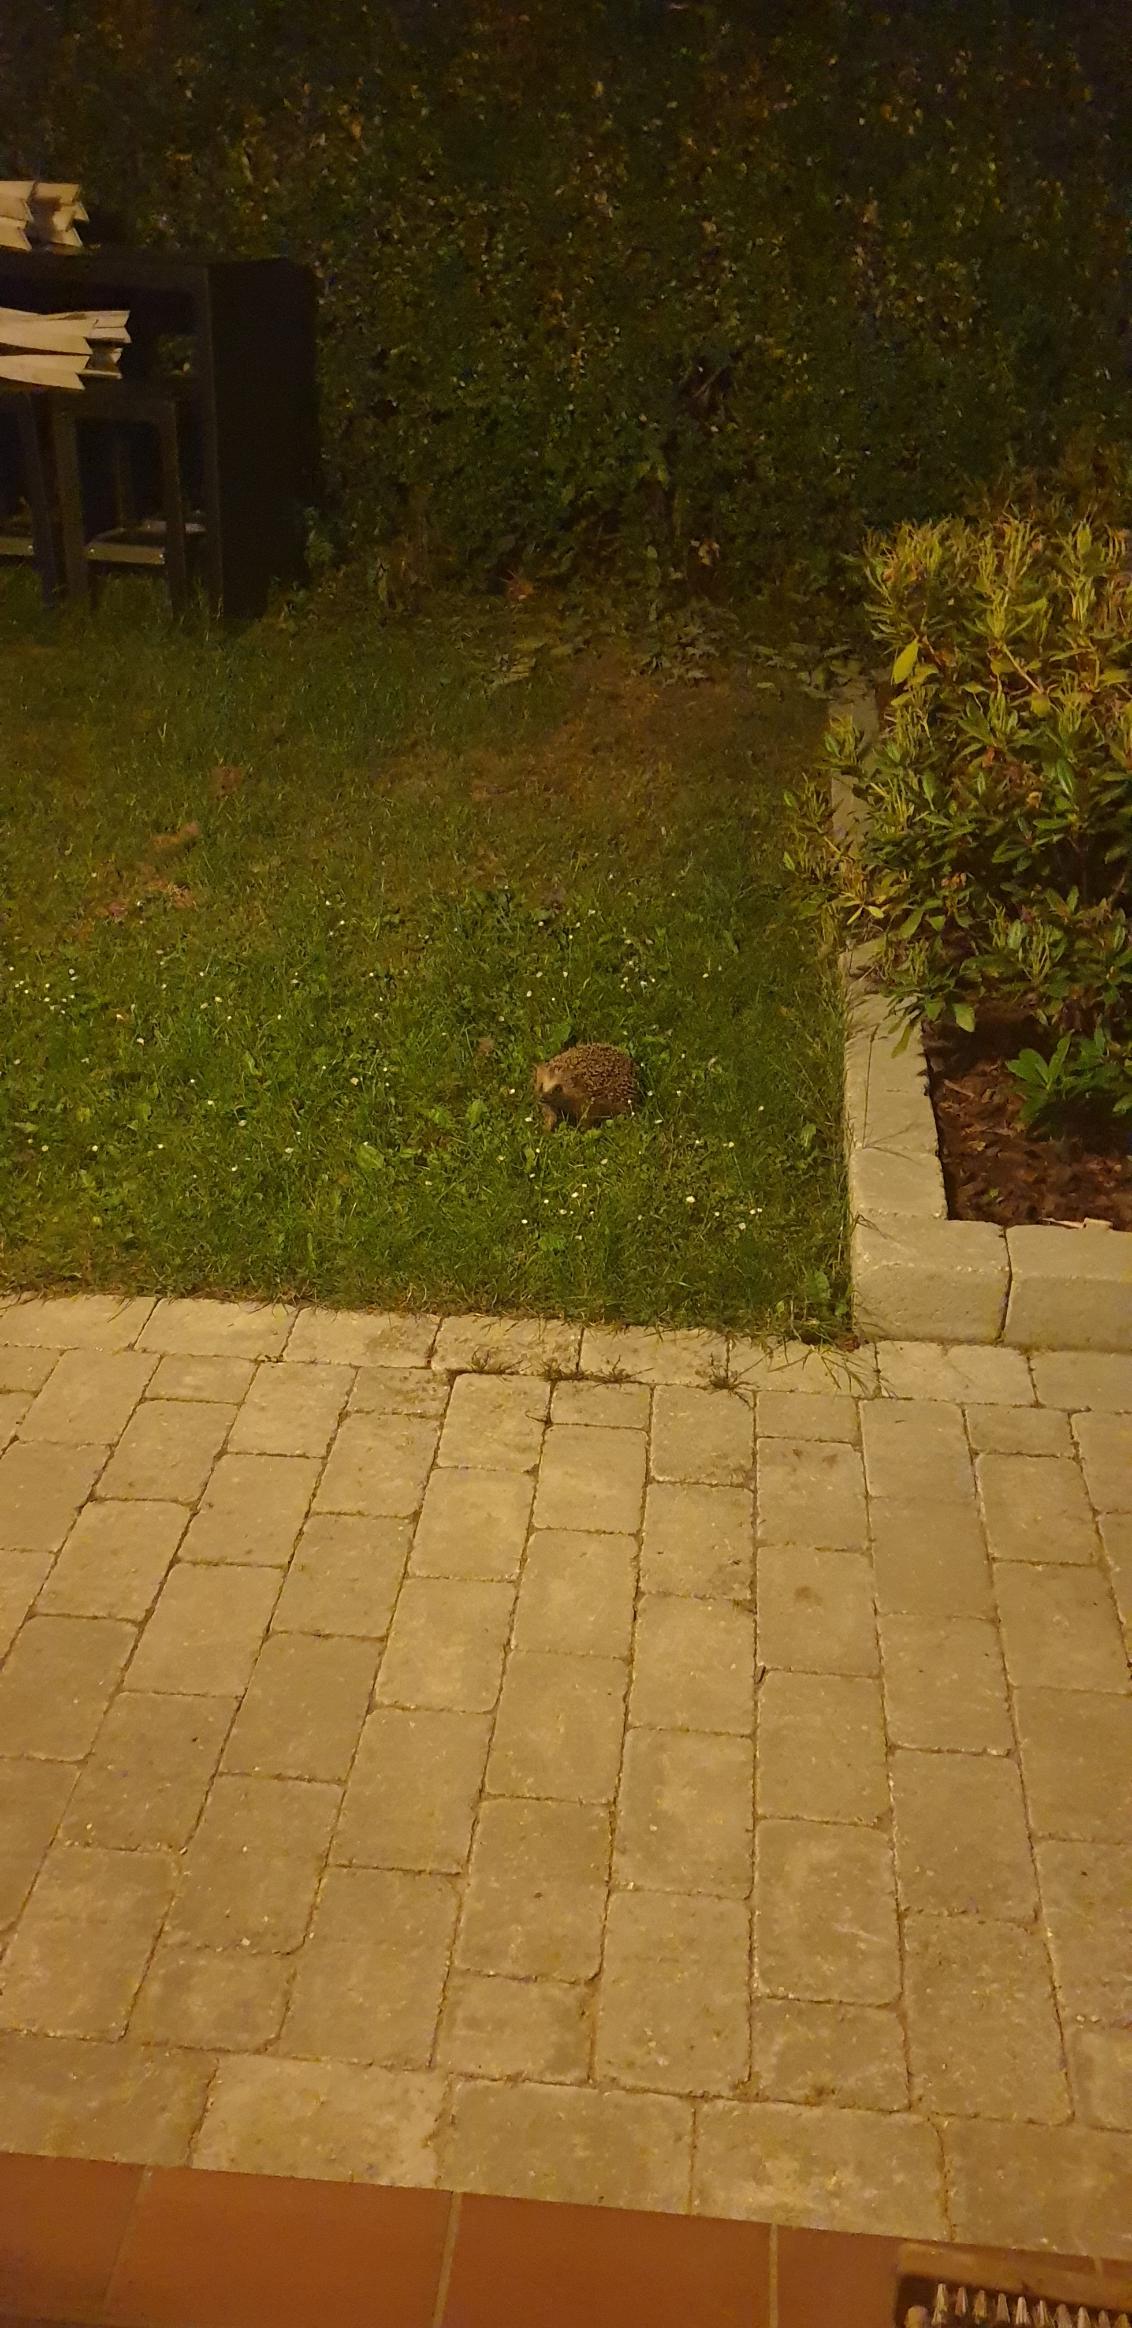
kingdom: Animalia
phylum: Chordata
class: Mammalia
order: Erinaceomorpha
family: Erinaceidae
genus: Erinaceus
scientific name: Erinaceus europaeus
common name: Pindsvin
